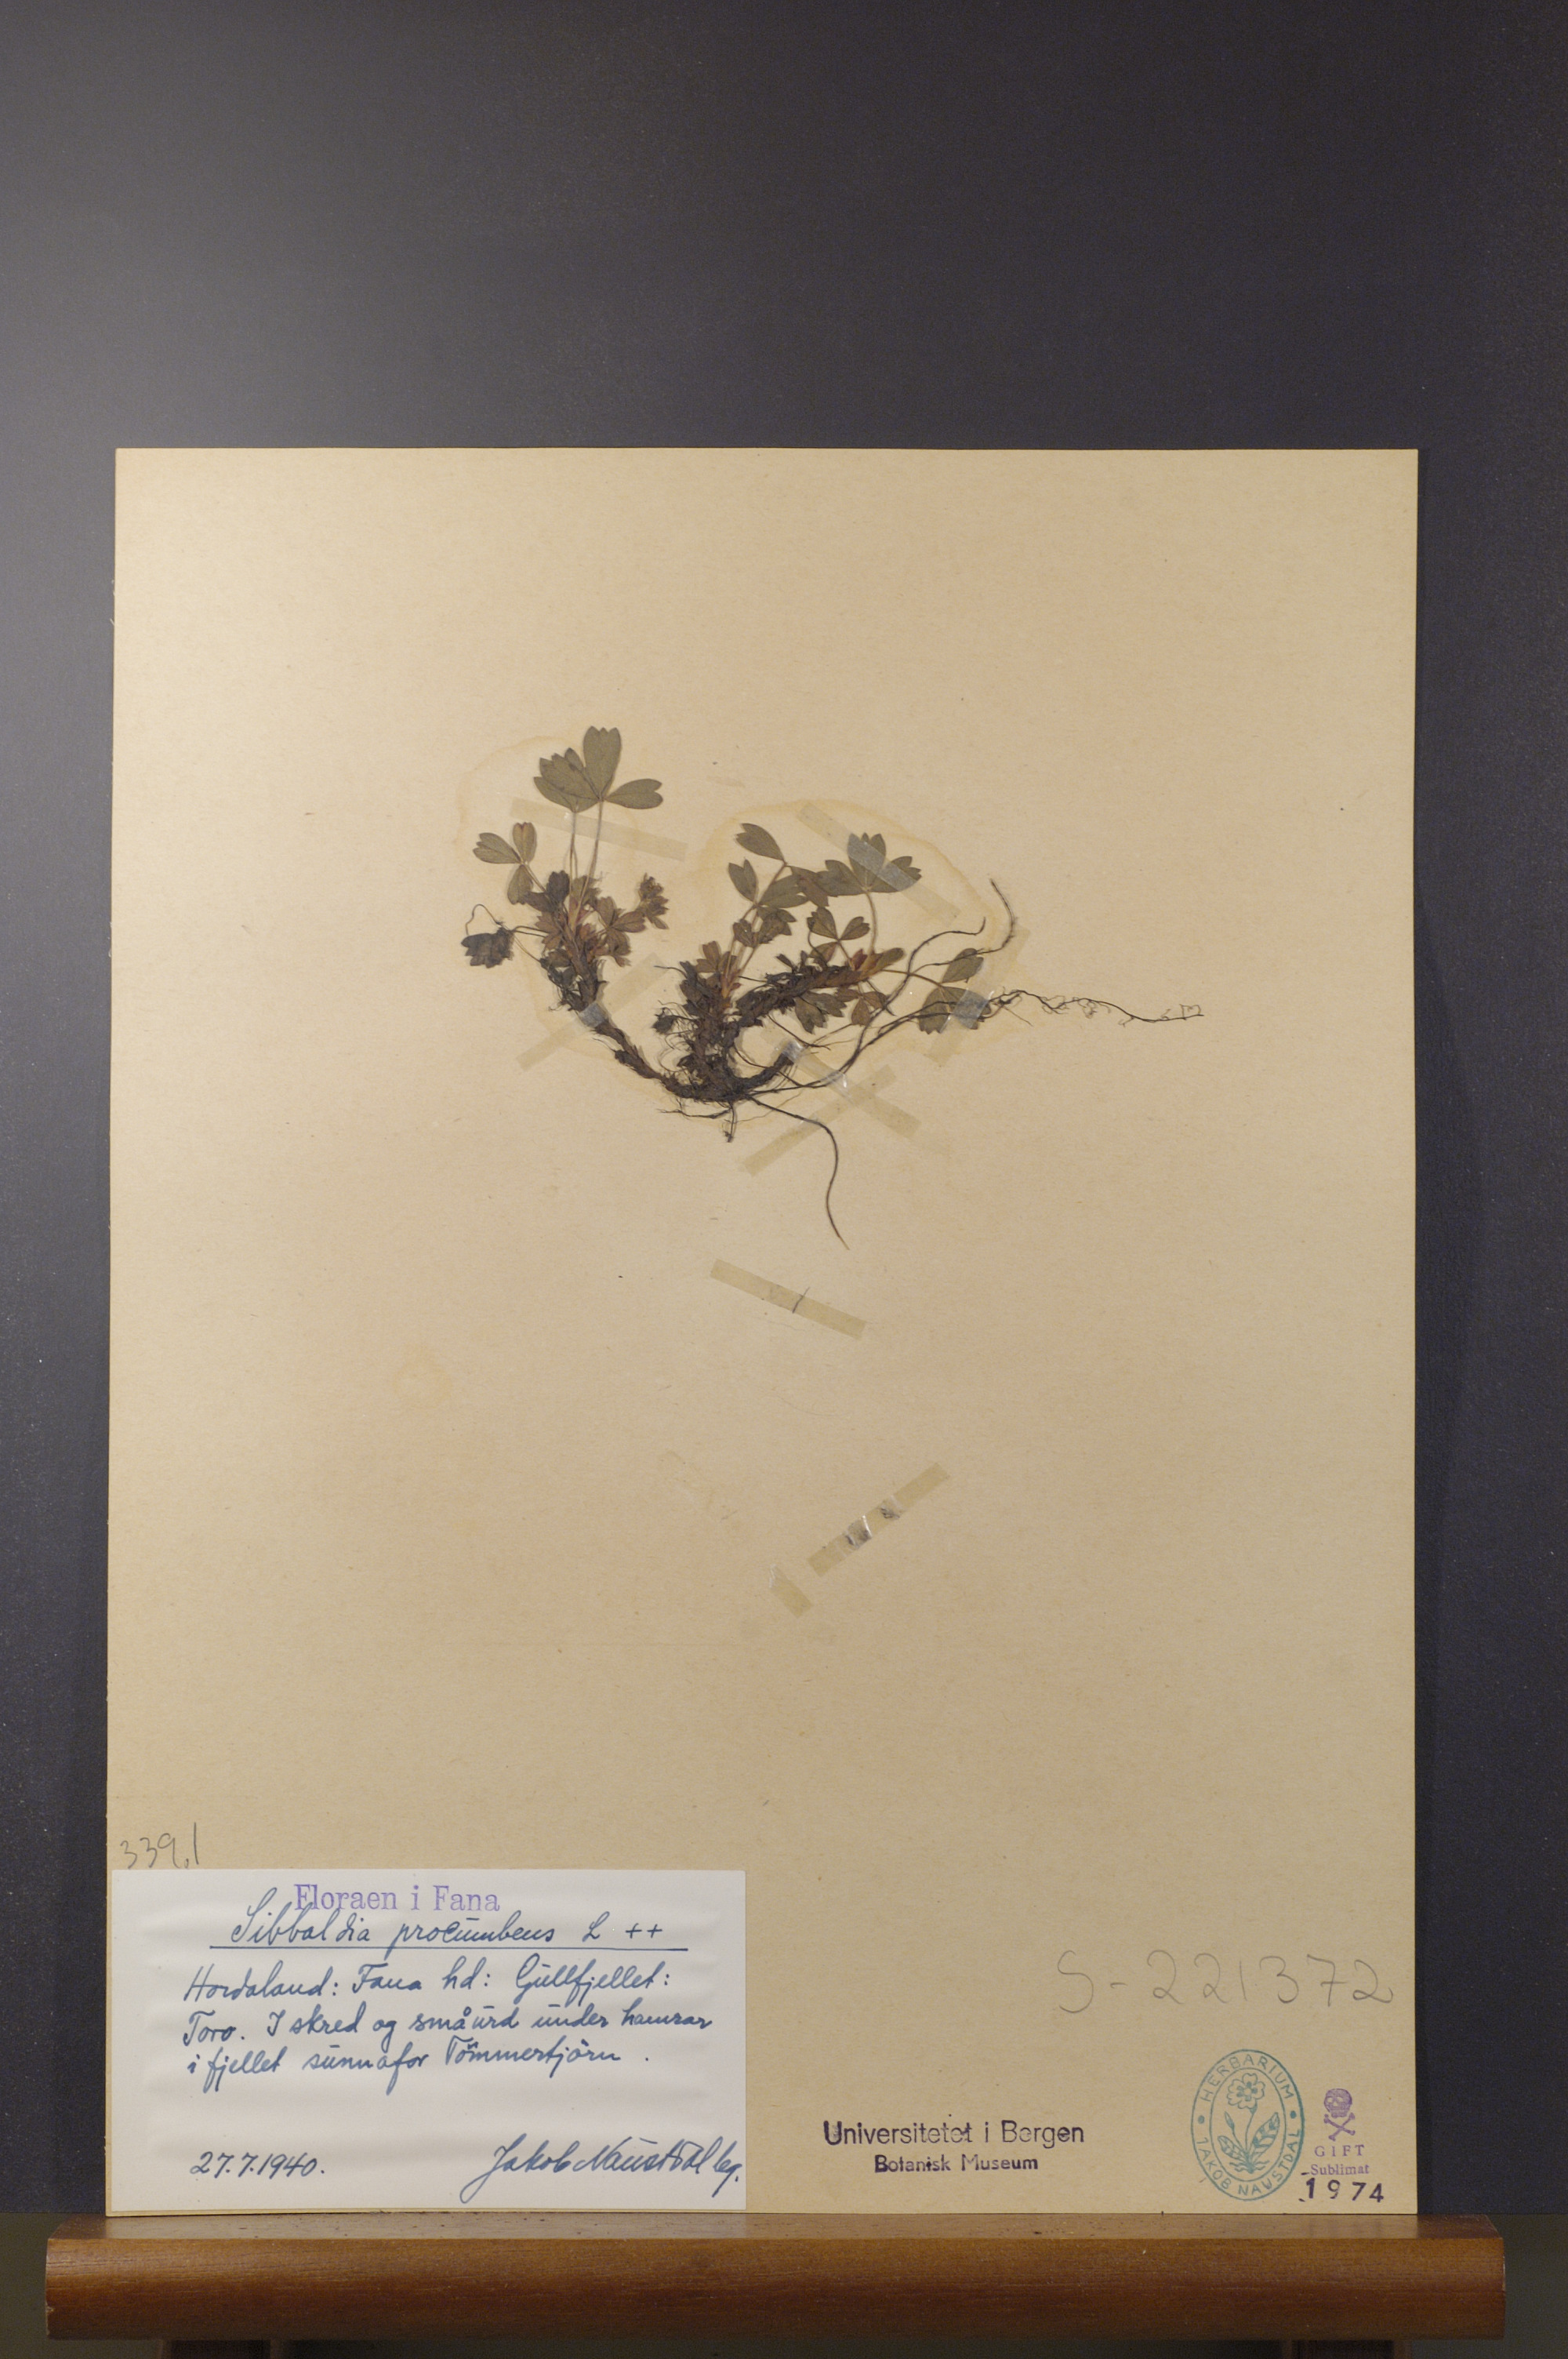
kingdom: Plantae
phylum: Tracheophyta
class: Magnoliopsida
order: Rosales
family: Rosaceae
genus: Sibbaldia
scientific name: Sibbaldia procumbens
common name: Creeping sibbaldia
